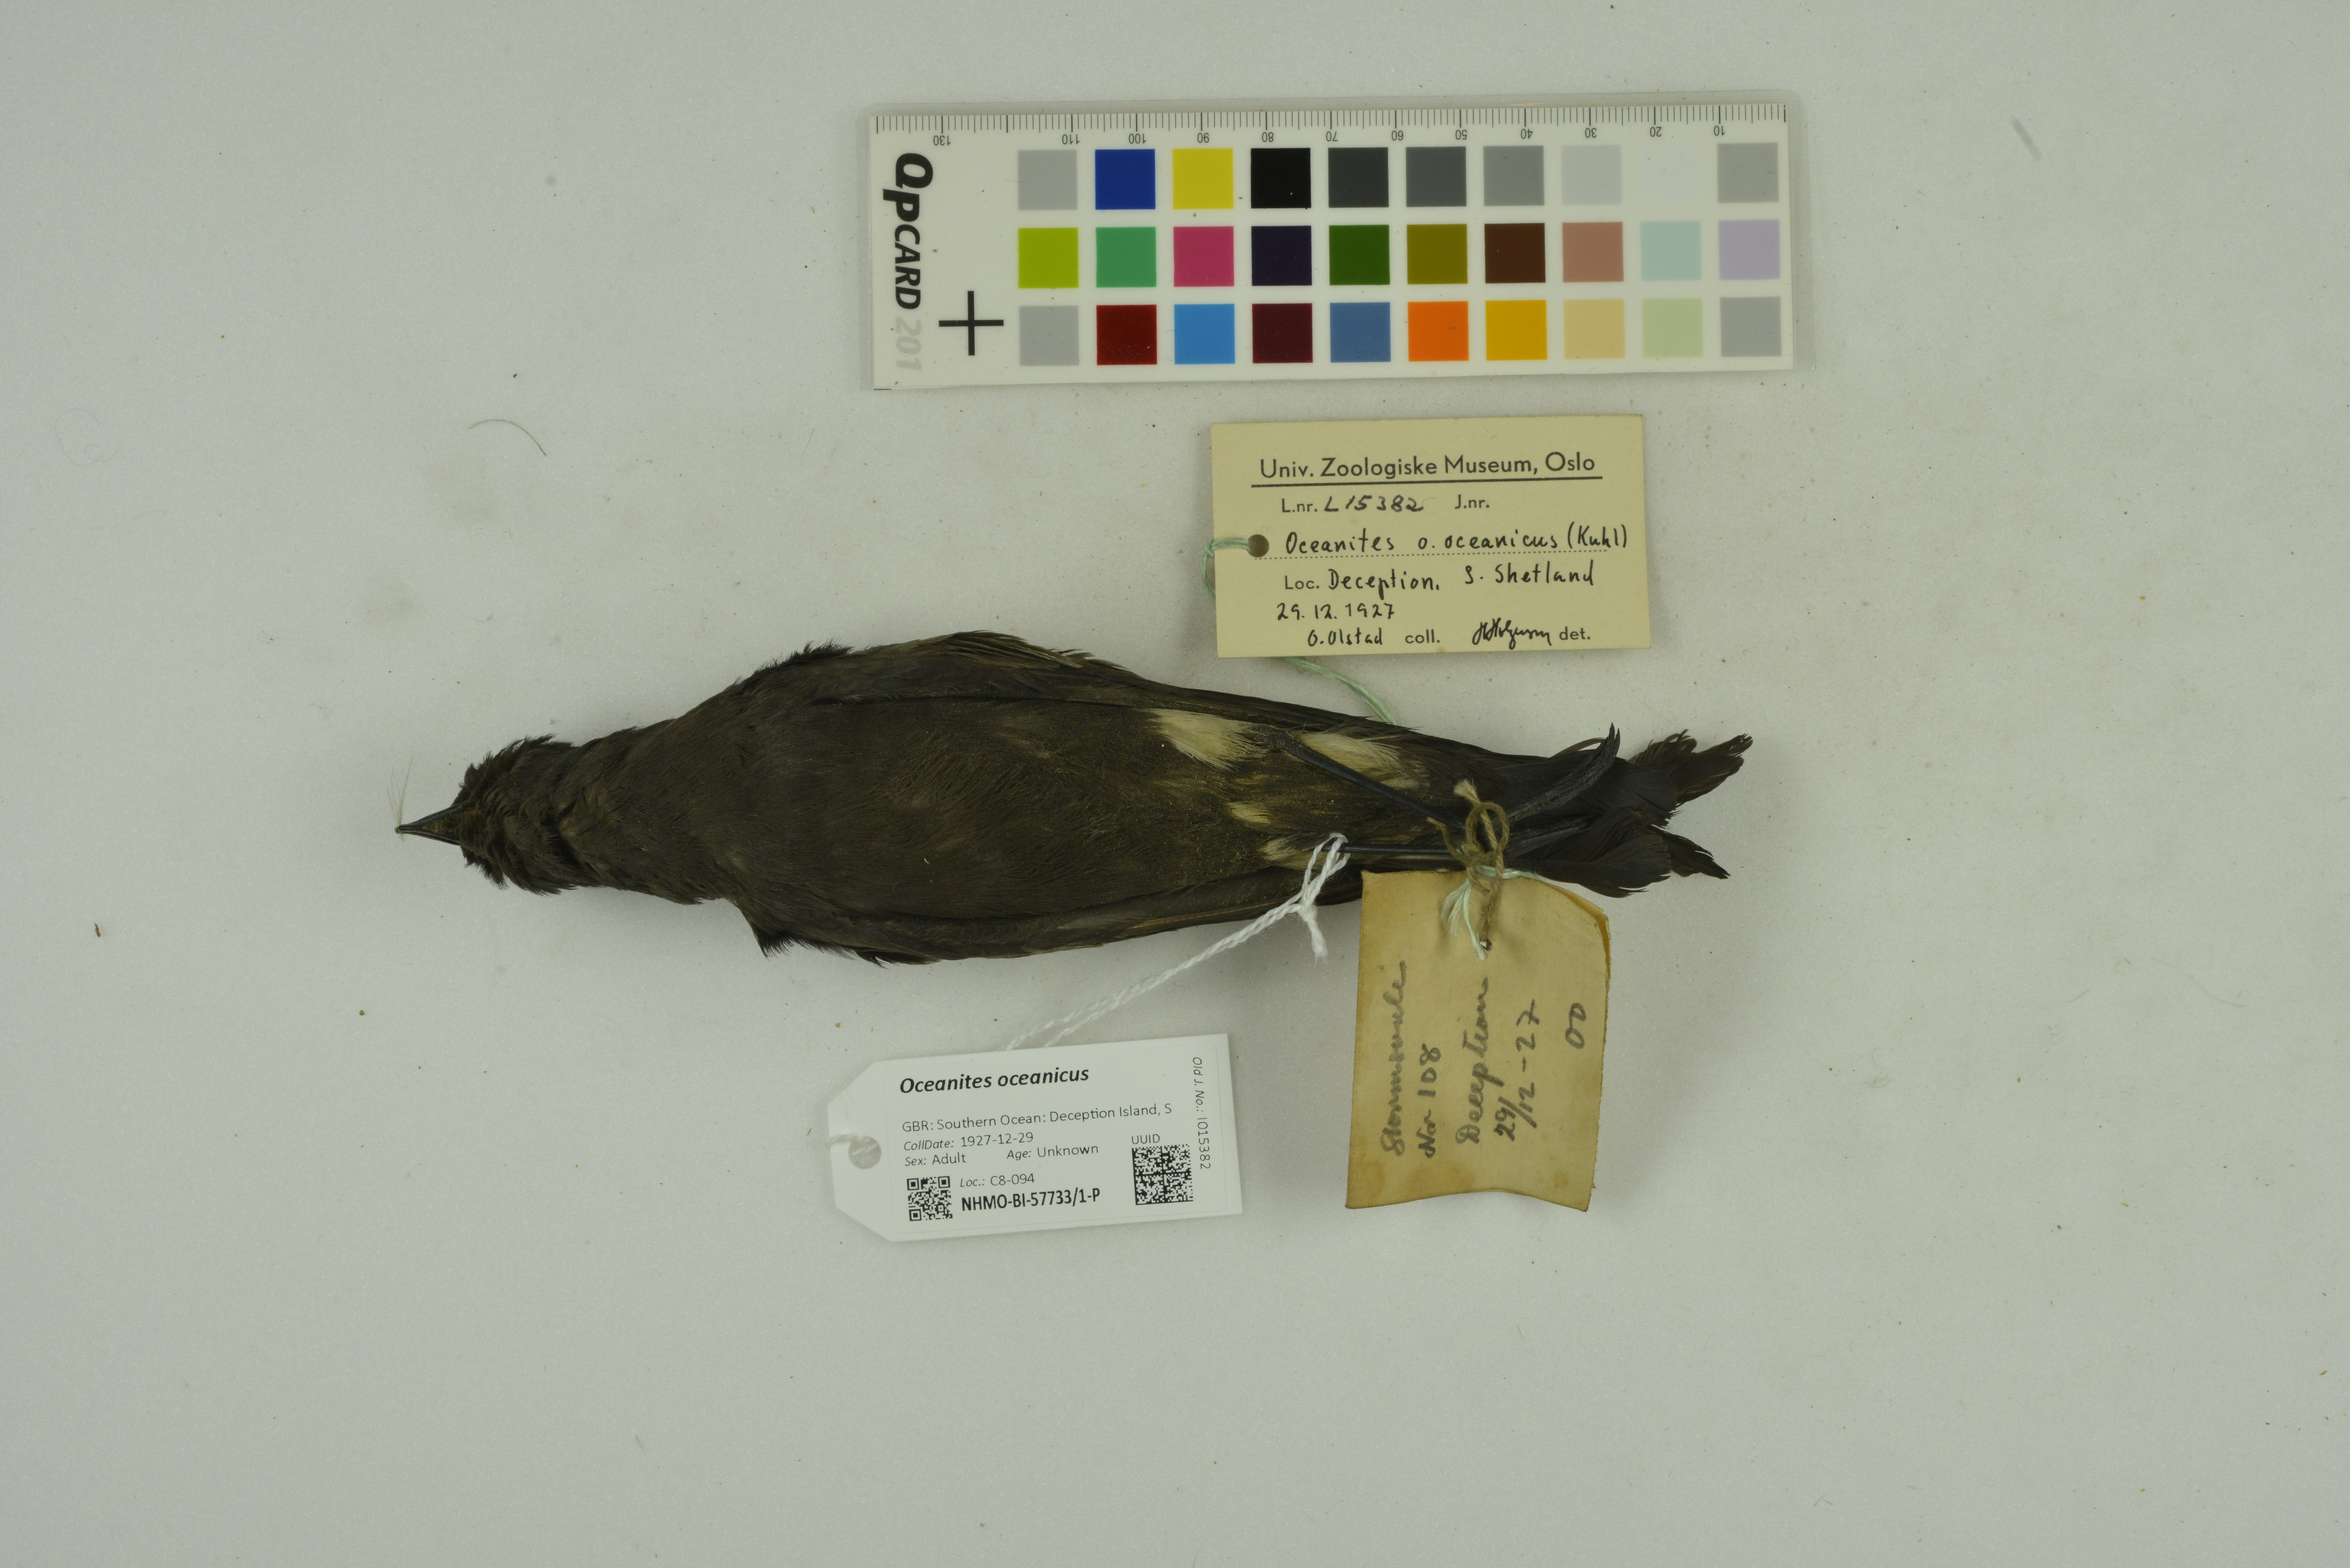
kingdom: Animalia
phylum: Chordata
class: Aves
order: Procellariiformes
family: Hydrobatidae
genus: Oceanites
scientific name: Oceanites oceanicus
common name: Wilson's storm petrel
